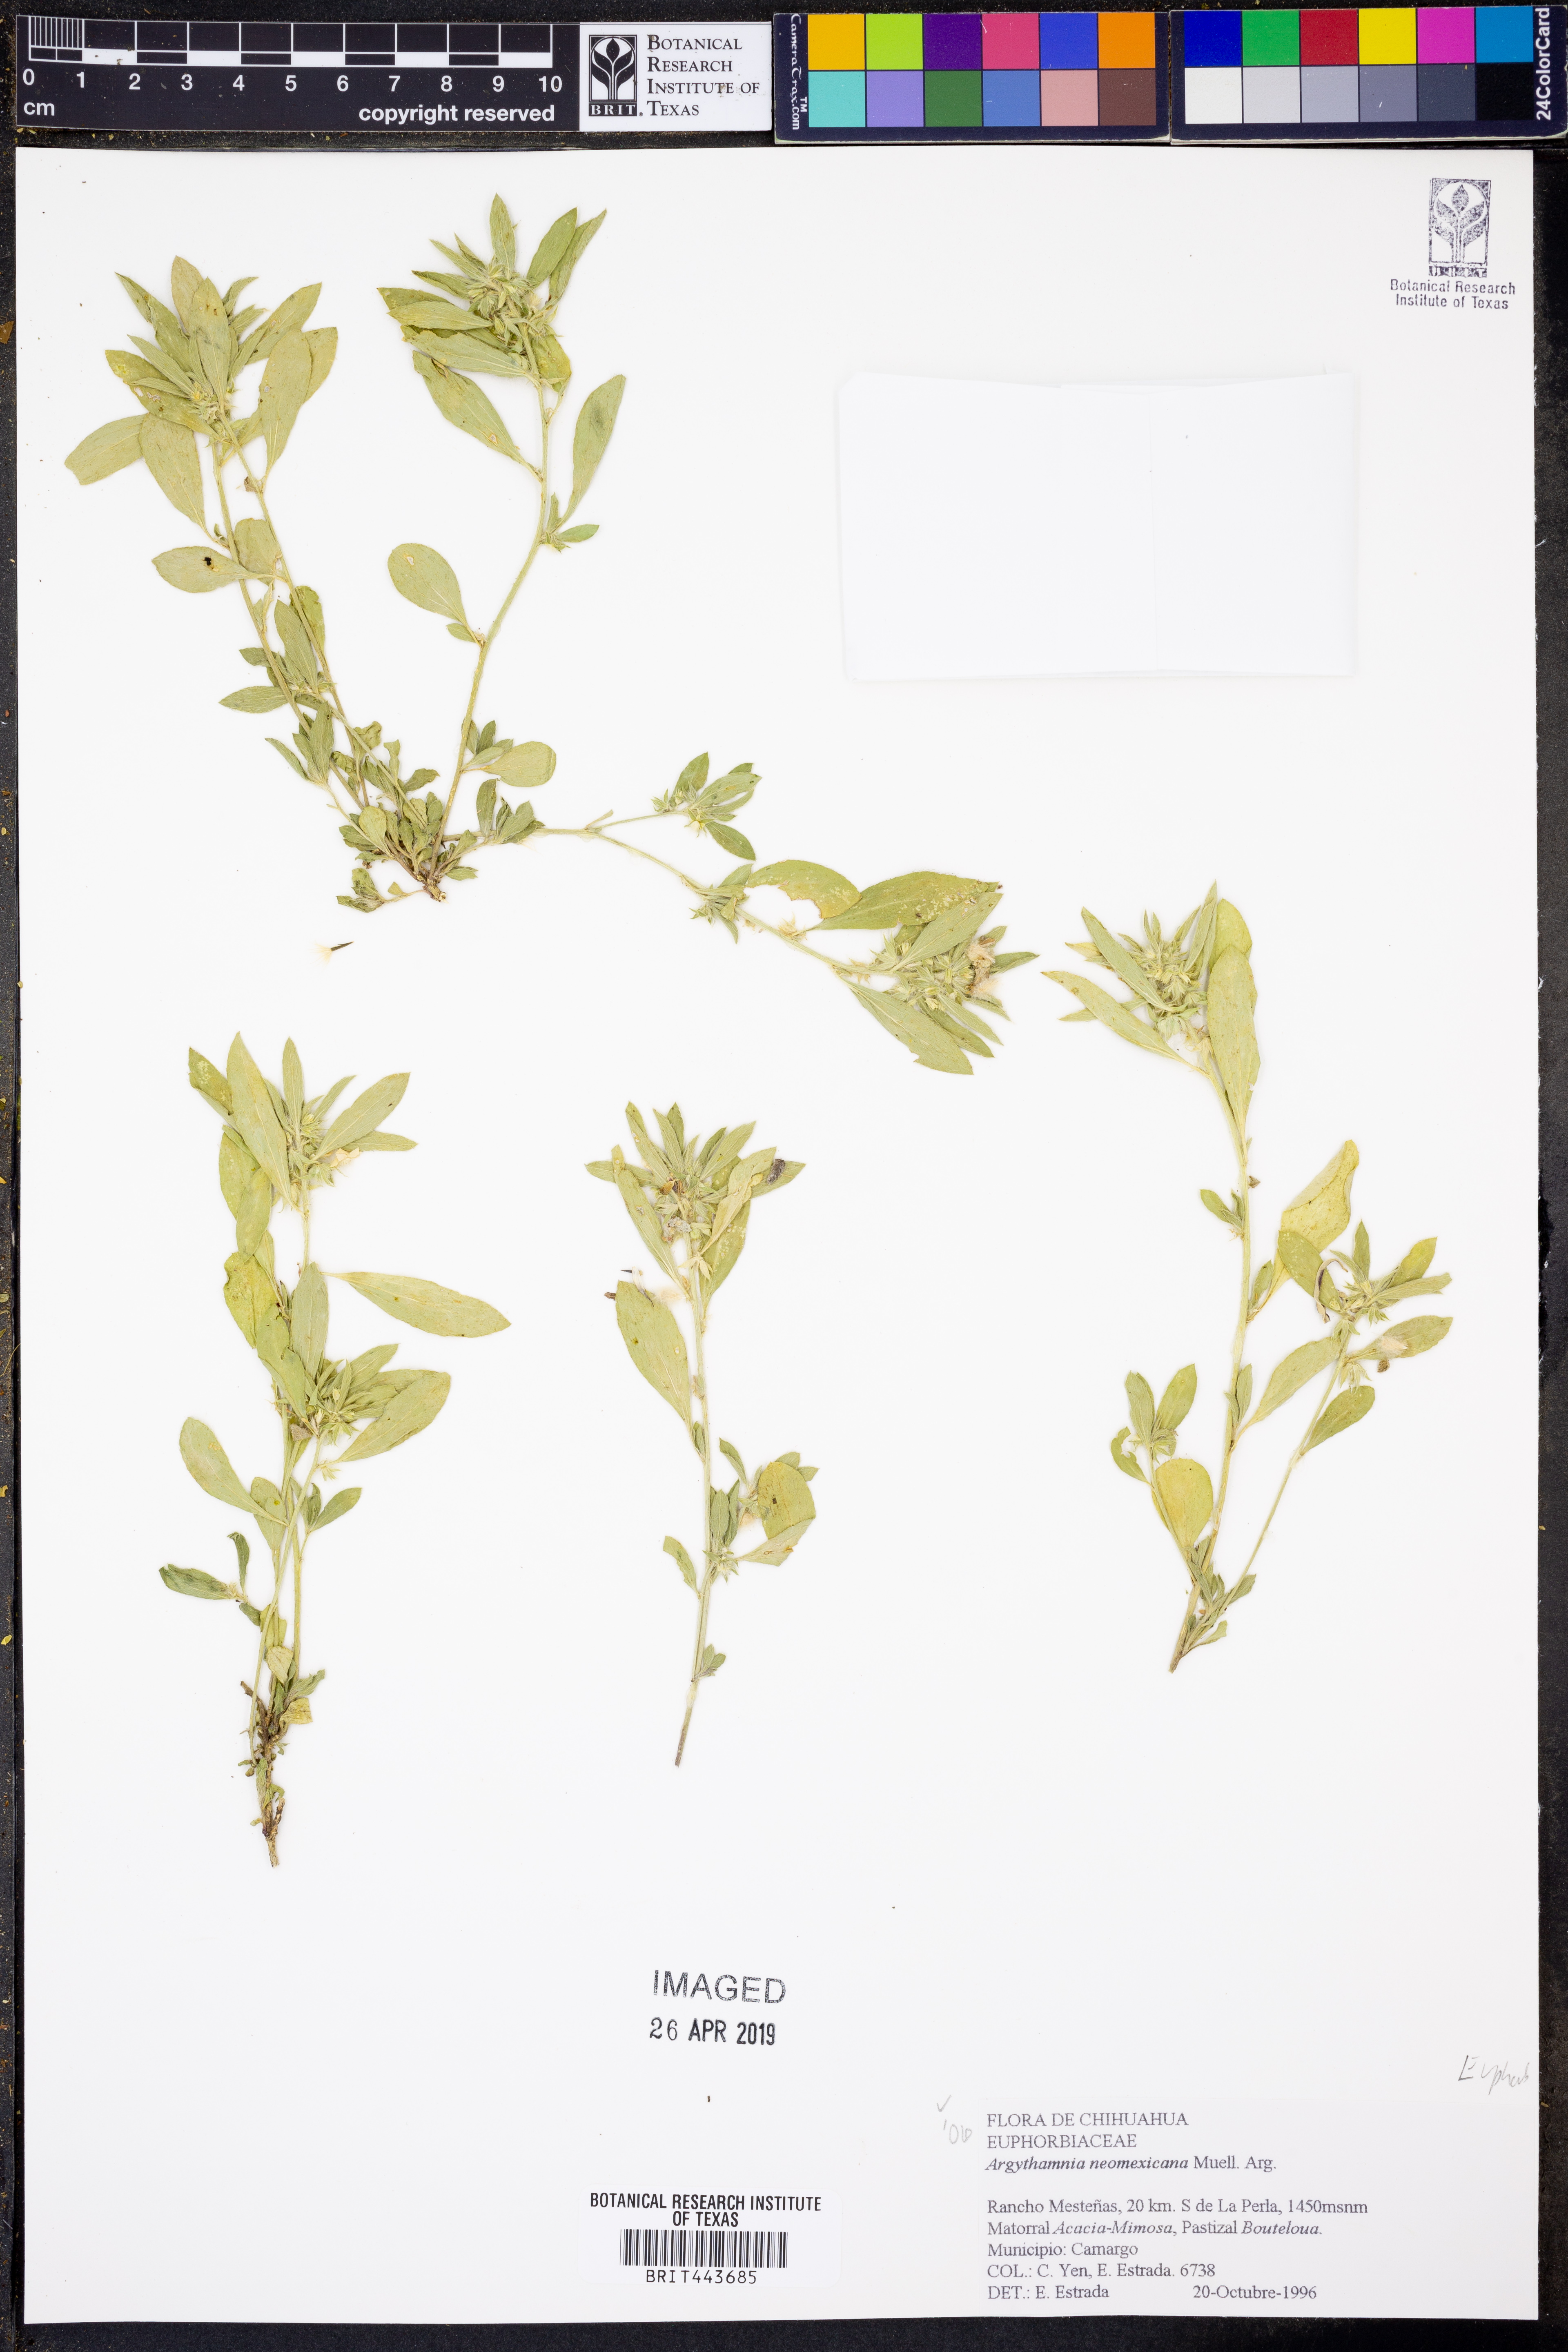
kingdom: Plantae
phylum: Tracheophyta
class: Magnoliopsida
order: Malpighiales
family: Euphorbiaceae
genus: Ditaxis
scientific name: Ditaxis serrata
